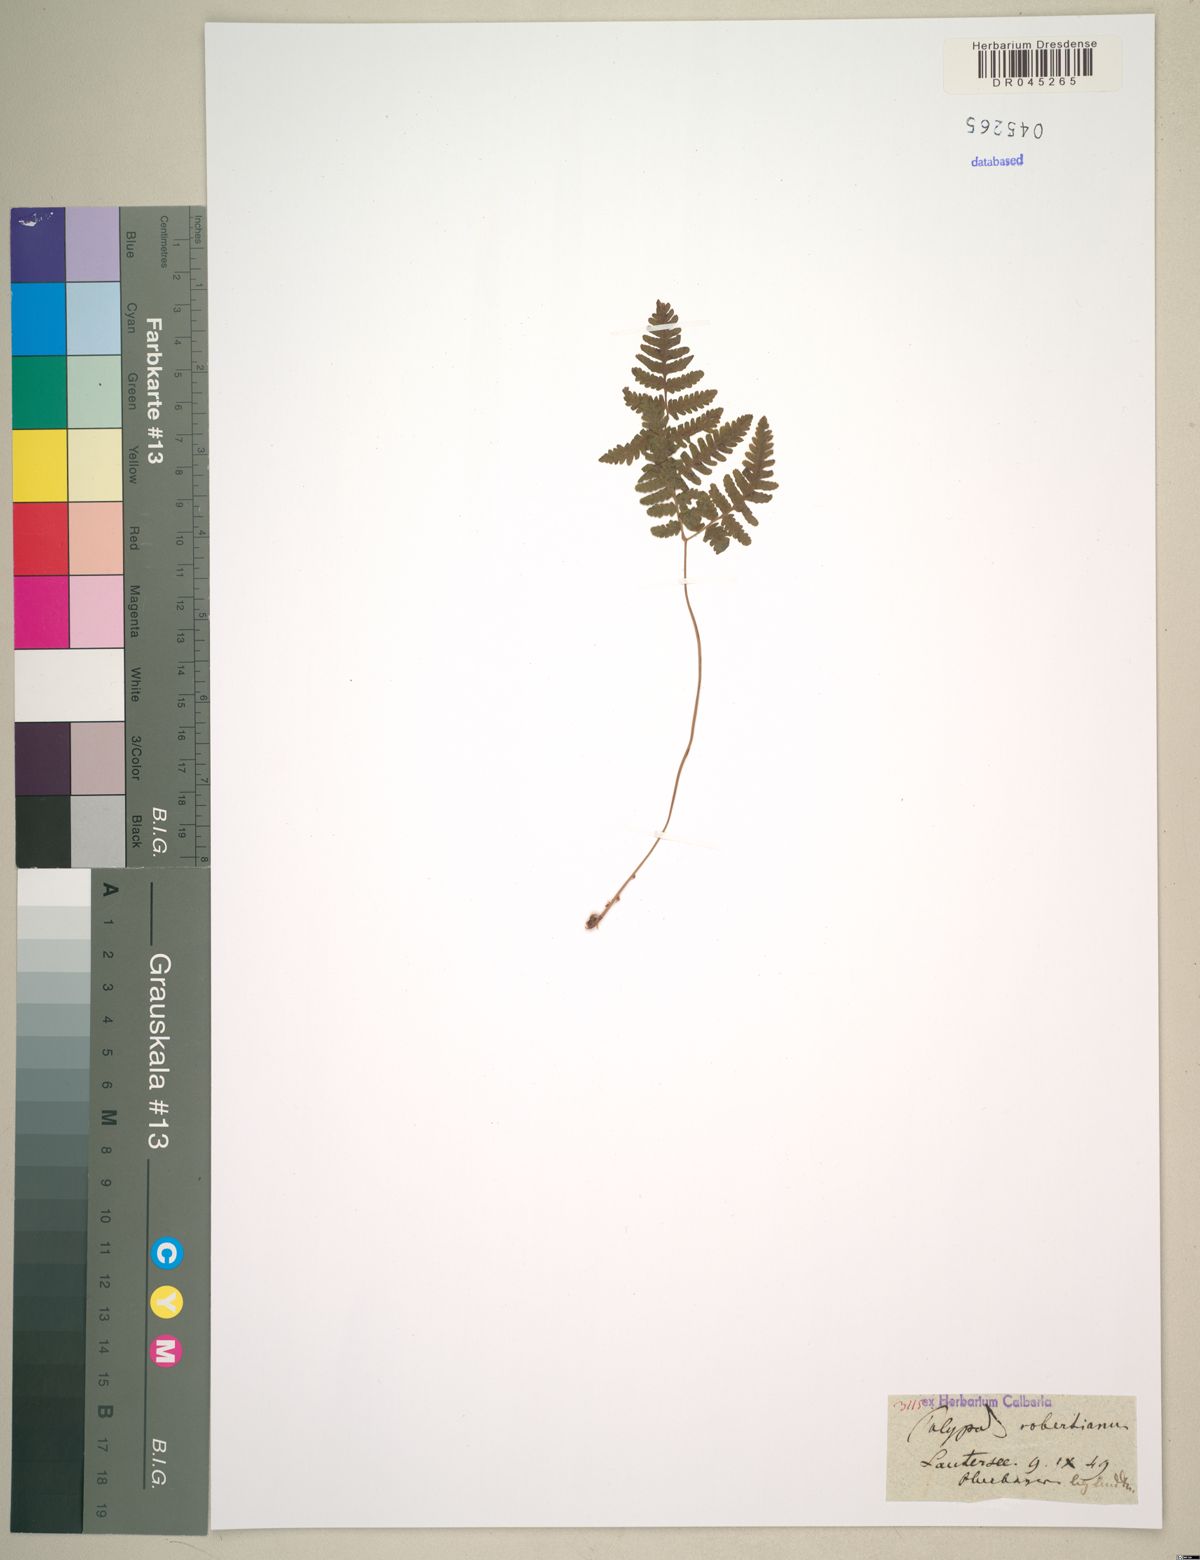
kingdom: Plantae
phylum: Tracheophyta
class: Polypodiopsida
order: Polypodiales
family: Cystopteridaceae
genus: Gymnocarpium
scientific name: Gymnocarpium robertianum
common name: Limestone fern
